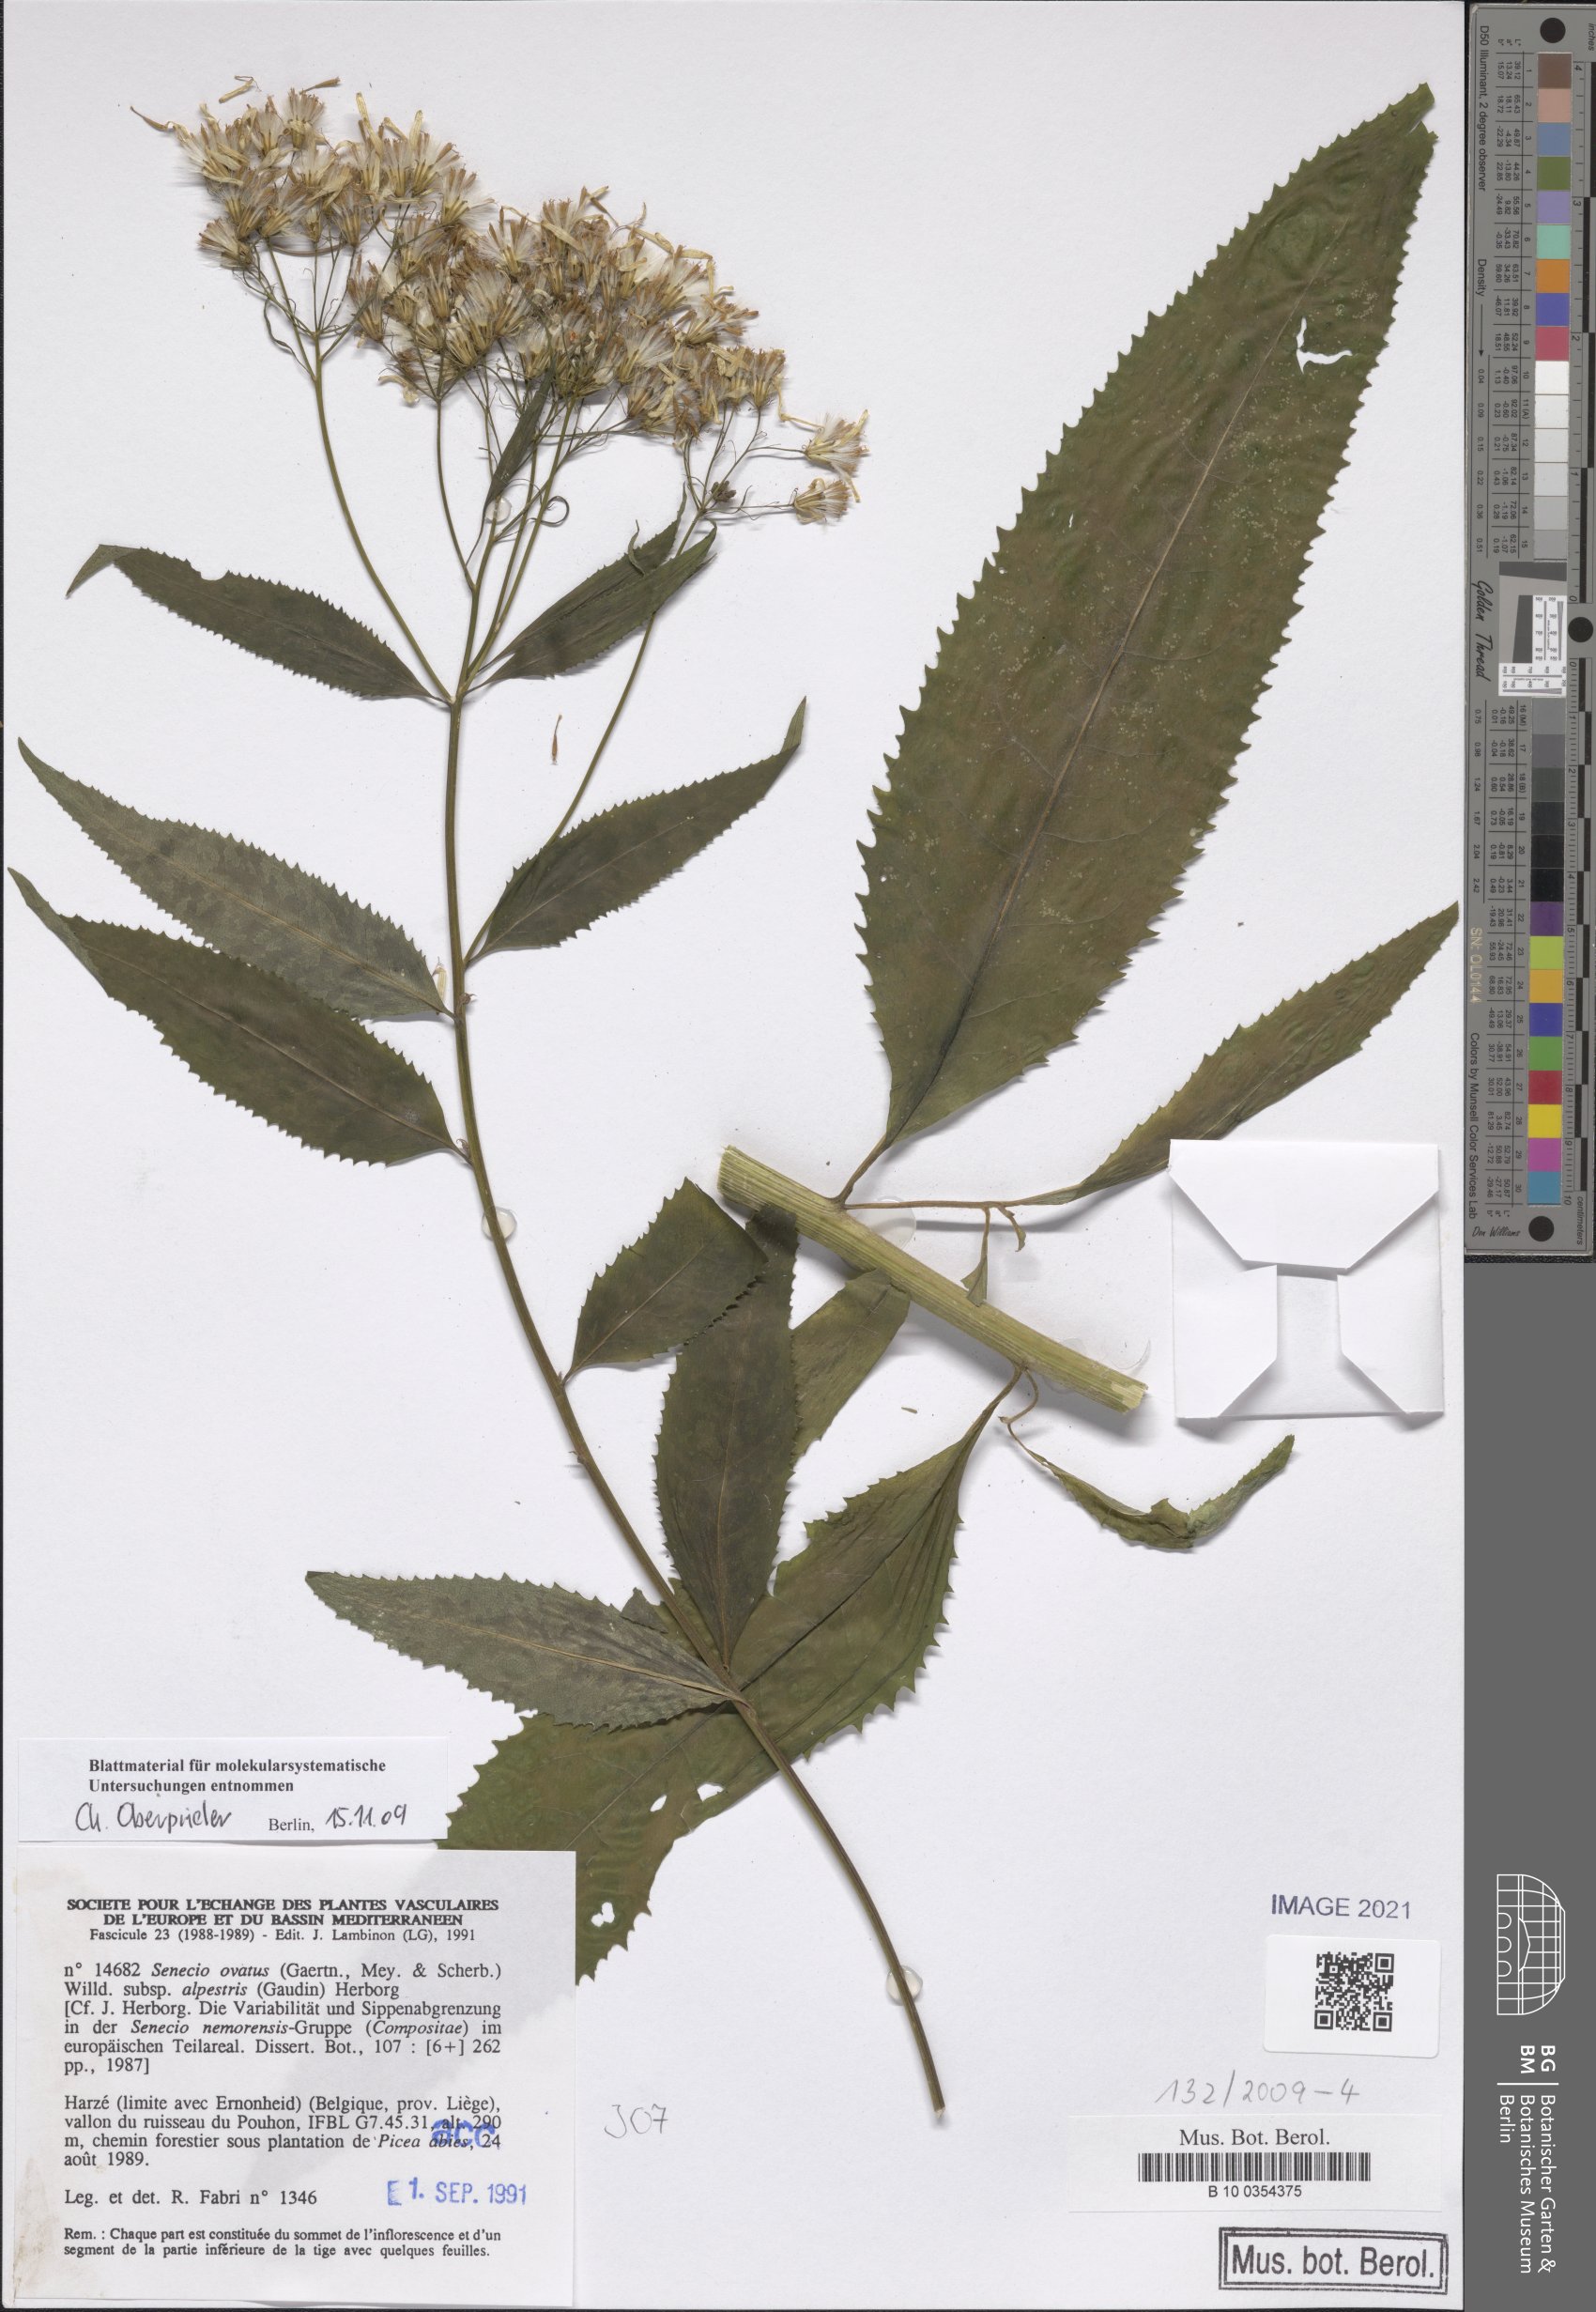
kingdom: Plantae
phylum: Tracheophyta
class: Magnoliopsida
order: Asterales
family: Asteraceae
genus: Senecio
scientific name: Senecio ovatus
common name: Wood ragwort
